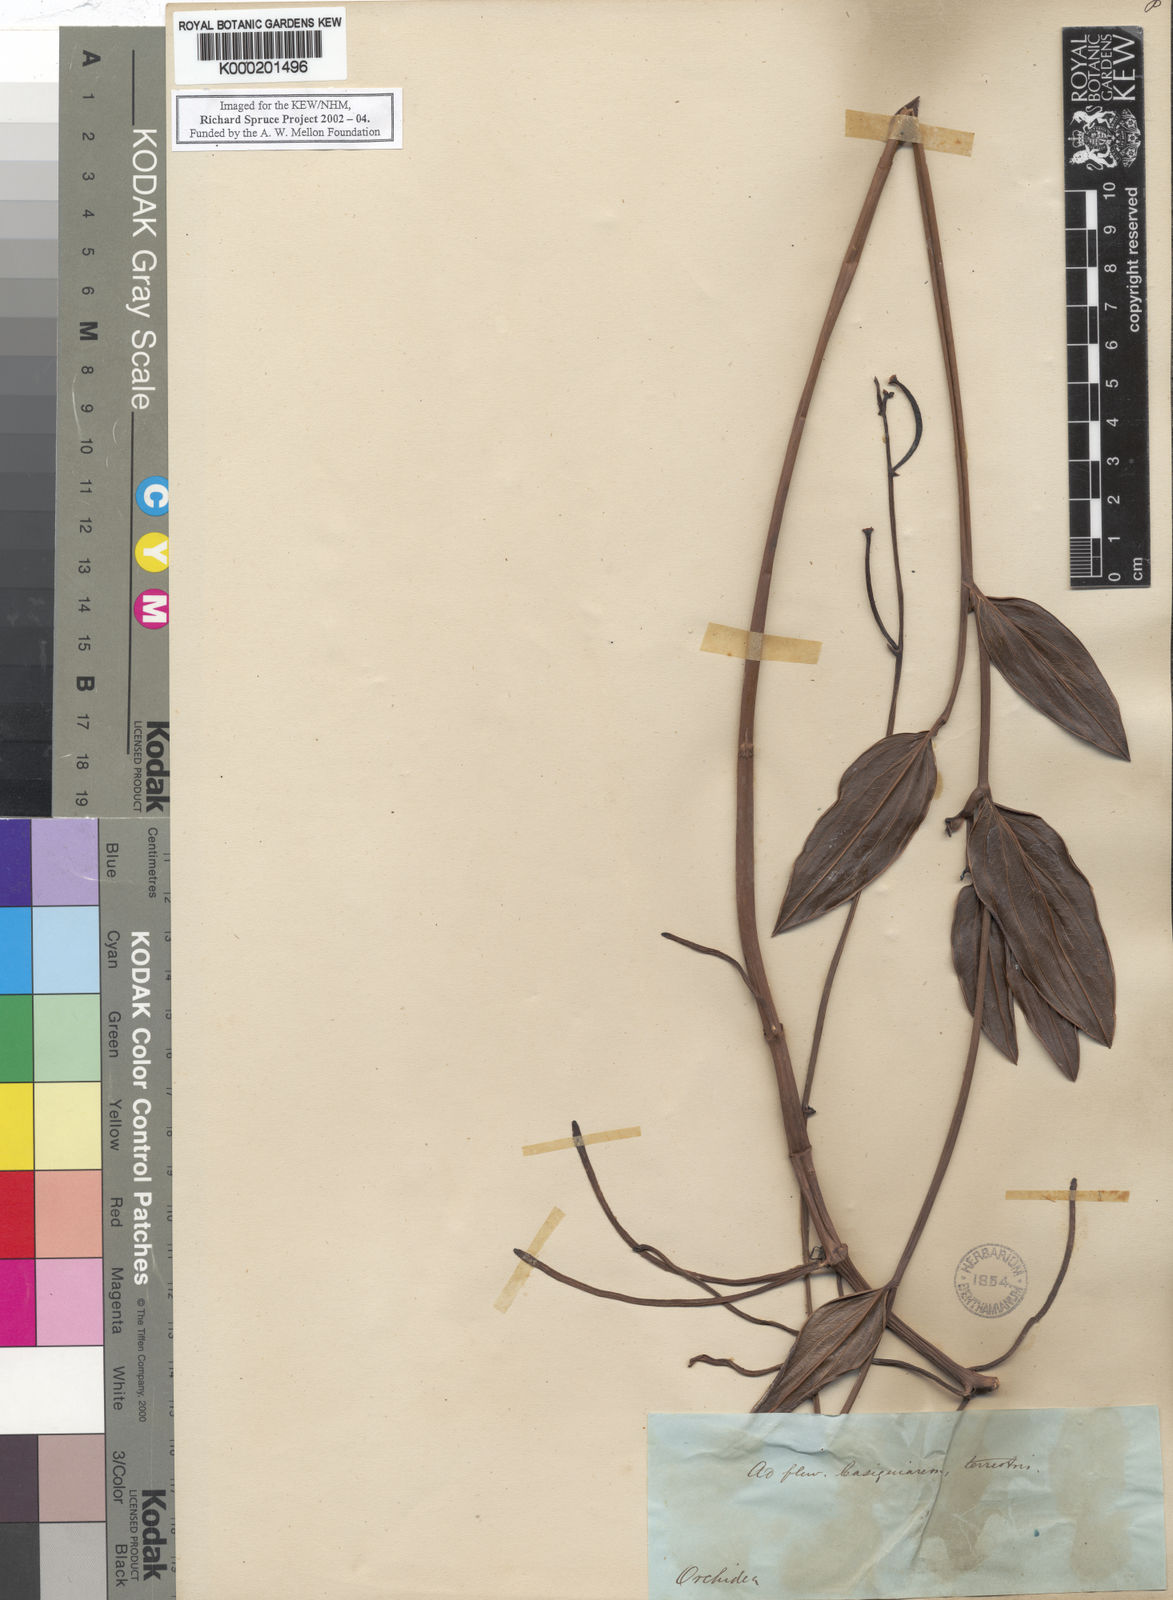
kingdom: Plantae
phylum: Tracheophyta
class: Liliopsida
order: Asparagales
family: Orchidaceae
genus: Epistephium
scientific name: Epistephium williamsii
